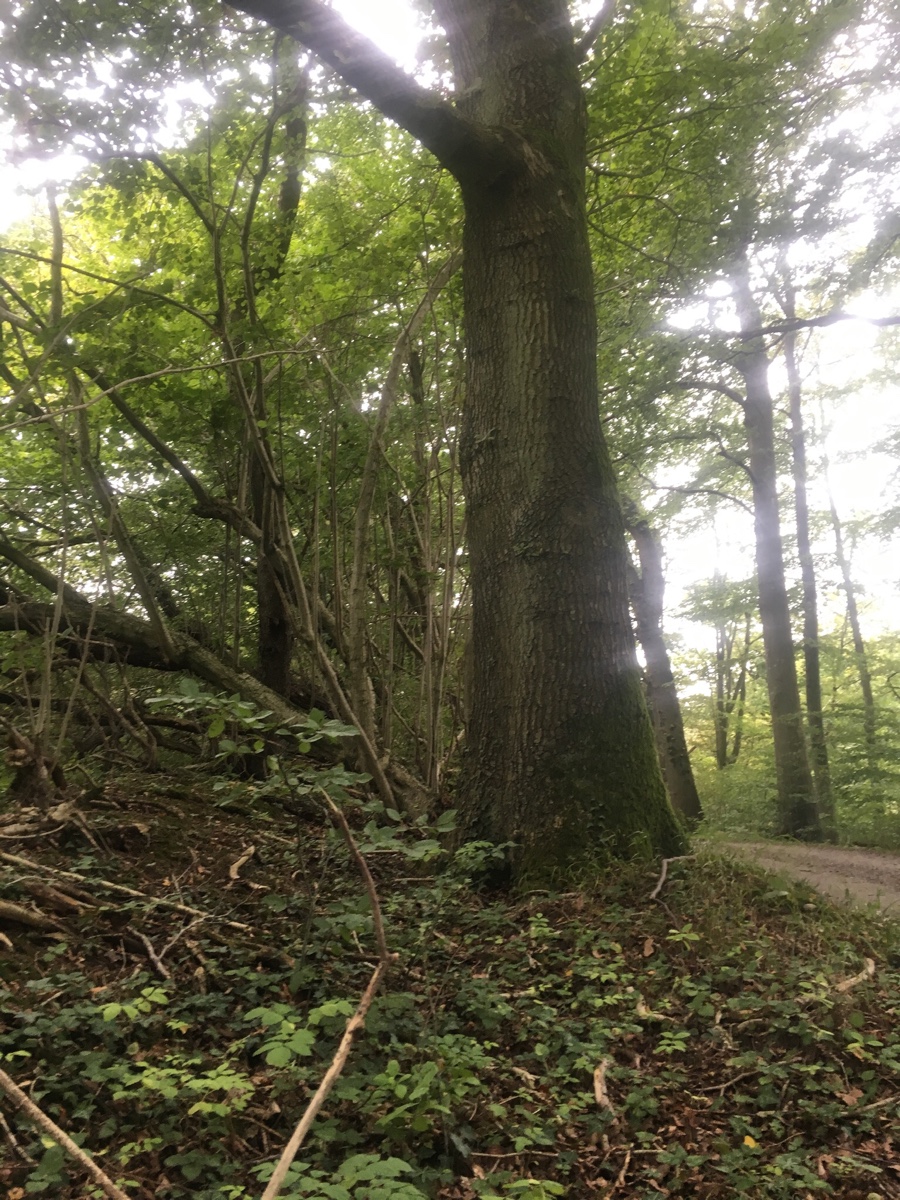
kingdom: Fungi
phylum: Basidiomycota
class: Agaricomycetes
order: Gomphales
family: Clavariadelphaceae
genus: Clavariadelphus
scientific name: Clavariadelphus pistillaris
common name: herkules-kæmpekølle
